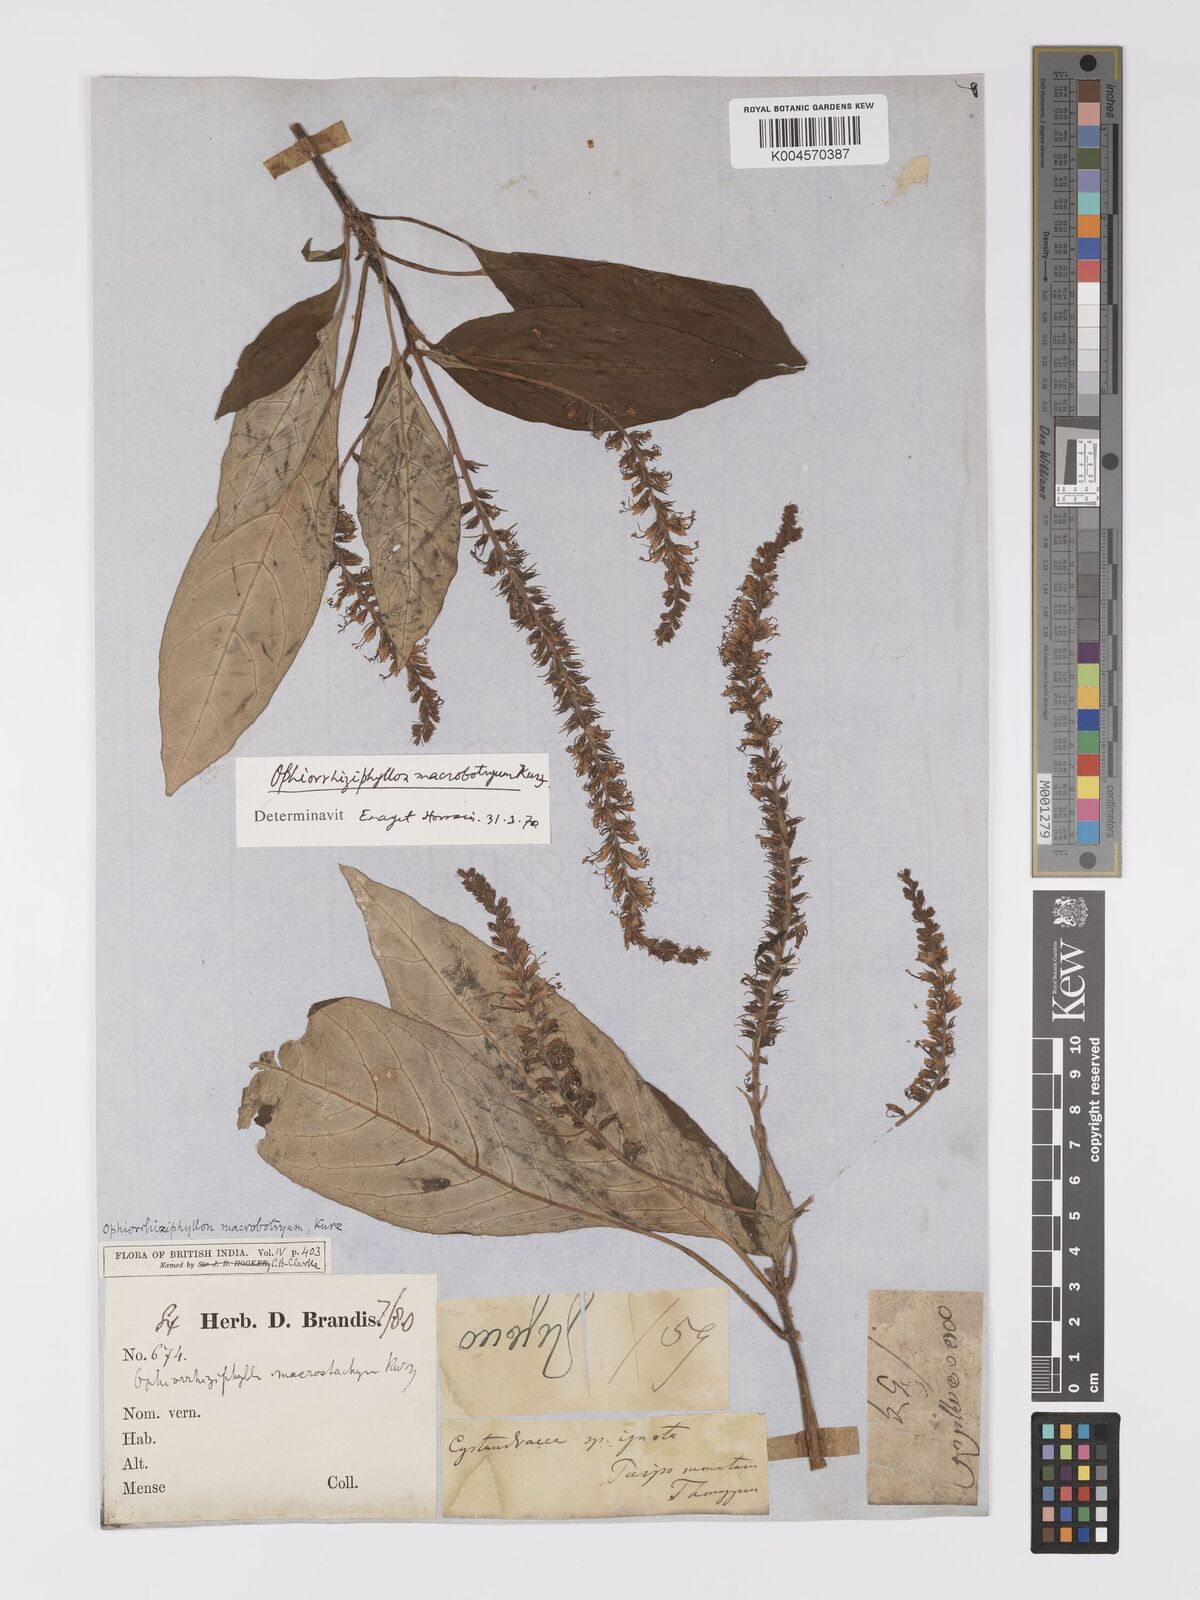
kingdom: Plantae
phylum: Tracheophyta
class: Magnoliopsida
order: Lamiales
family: Acanthaceae
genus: Staurogyne
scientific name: Staurogyne macrobotrya
